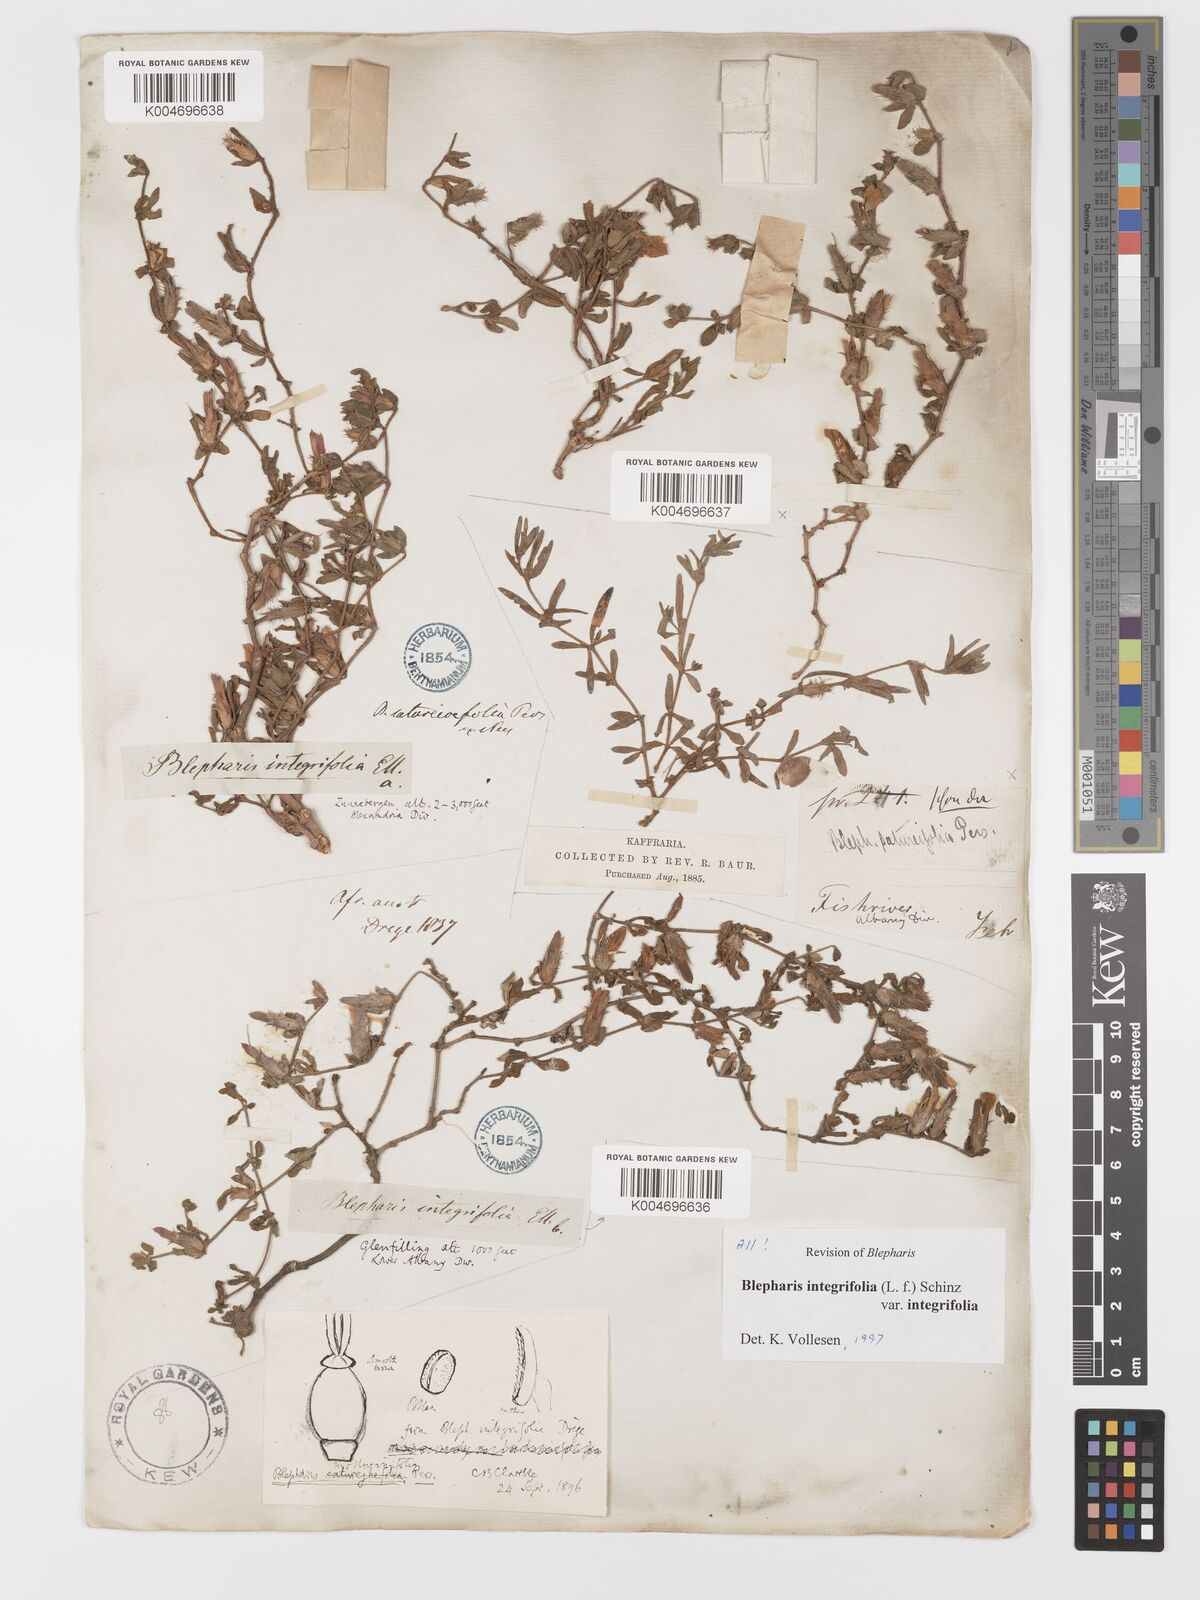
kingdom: Plantae
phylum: Tracheophyta
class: Magnoliopsida
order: Lamiales
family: Acanthaceae
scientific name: Acanthaceae
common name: Acanthaceae
